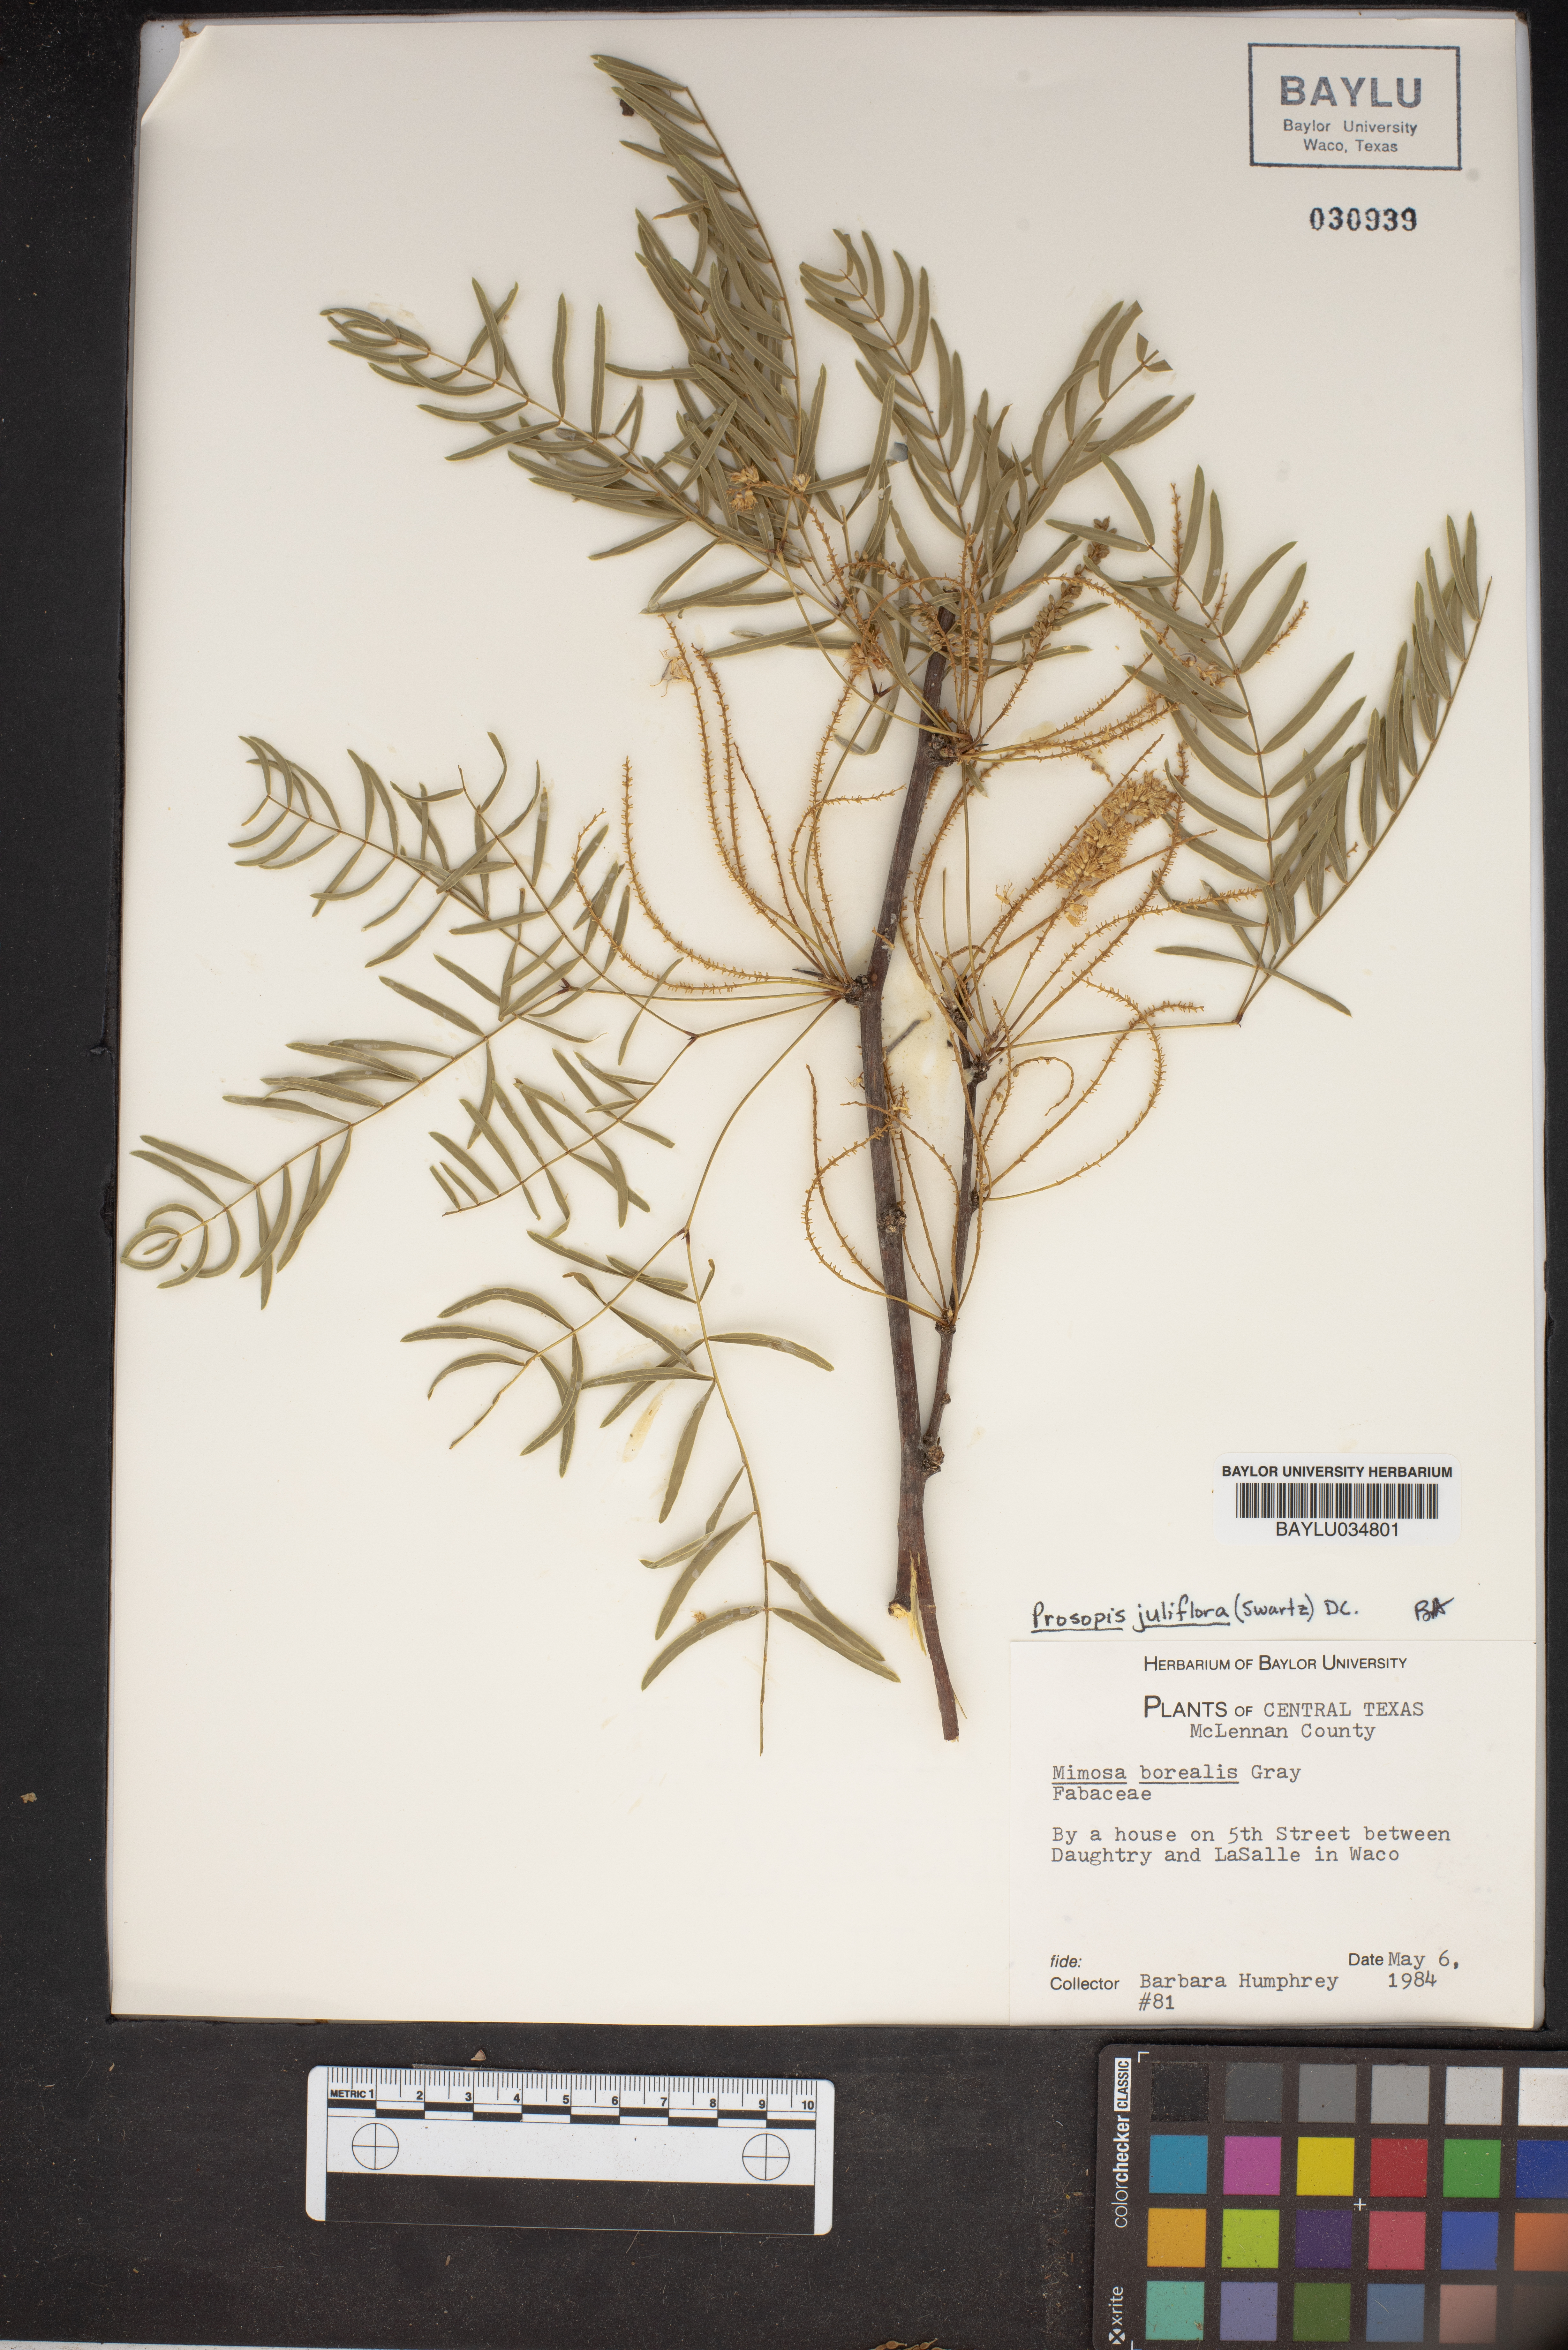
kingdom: Plantae
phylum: Tracheophyta
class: Magnoliopsida
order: Fabales
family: Fabaceae
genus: Prosopis
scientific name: Prosopis juliflora
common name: Mesquite
